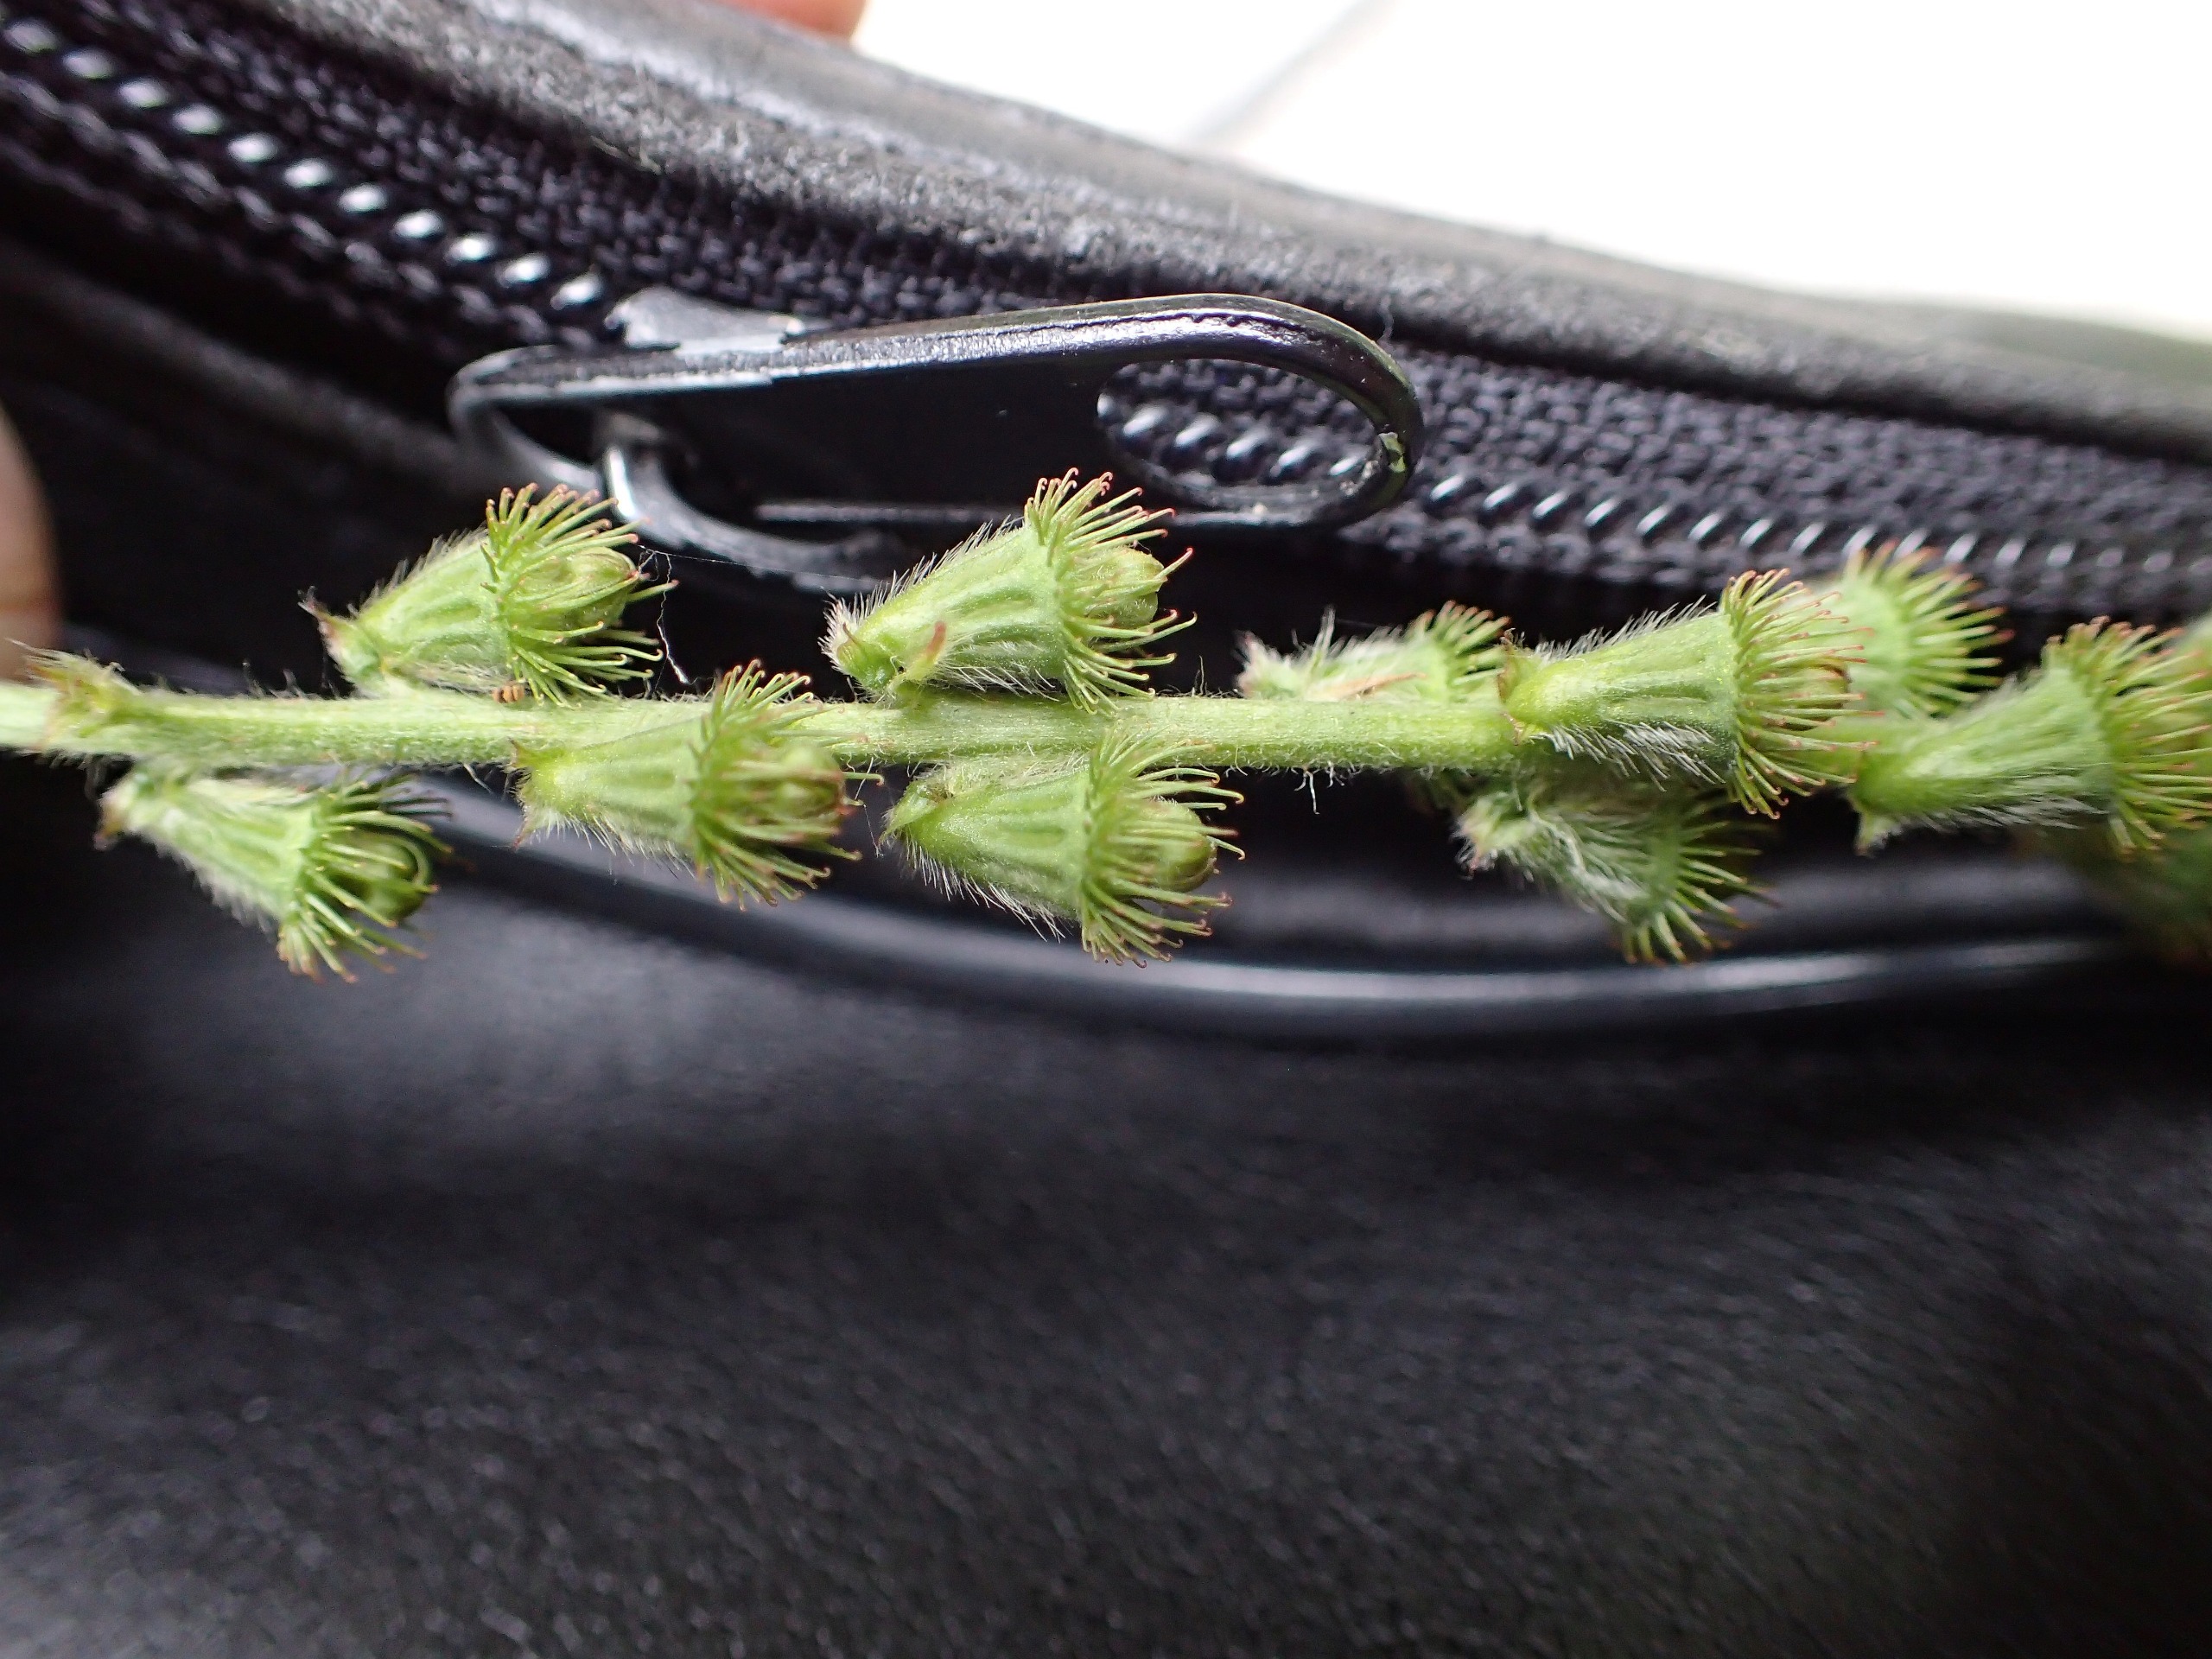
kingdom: Plantae
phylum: Tracheophyta
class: Magnoliopsida
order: Rosales
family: Rosaceae
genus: Agrimonia
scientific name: Agrimonia eupatoria
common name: Almindelig agermåne
